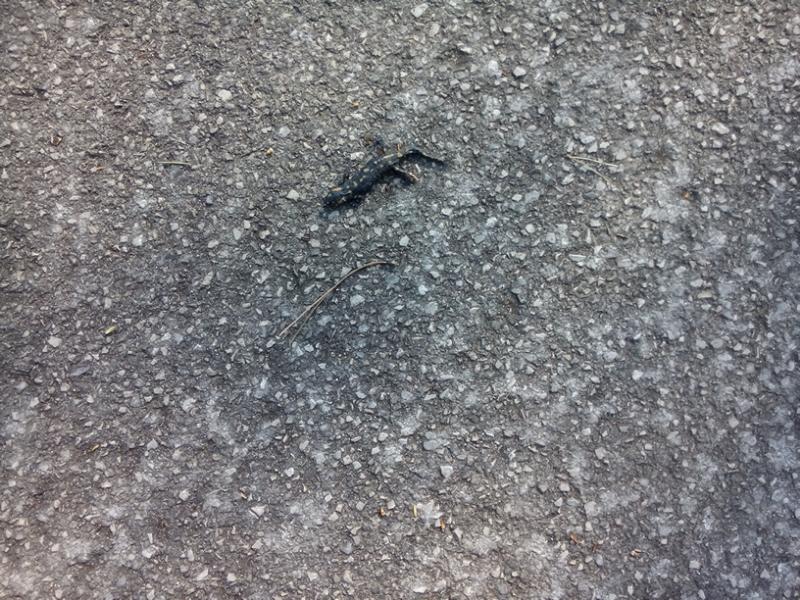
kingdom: Animalia
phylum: Chordata
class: Amphibia
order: Caudata
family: Salamandridae
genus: Salamandra
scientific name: Salamandra salamandra
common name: Fire salamander
